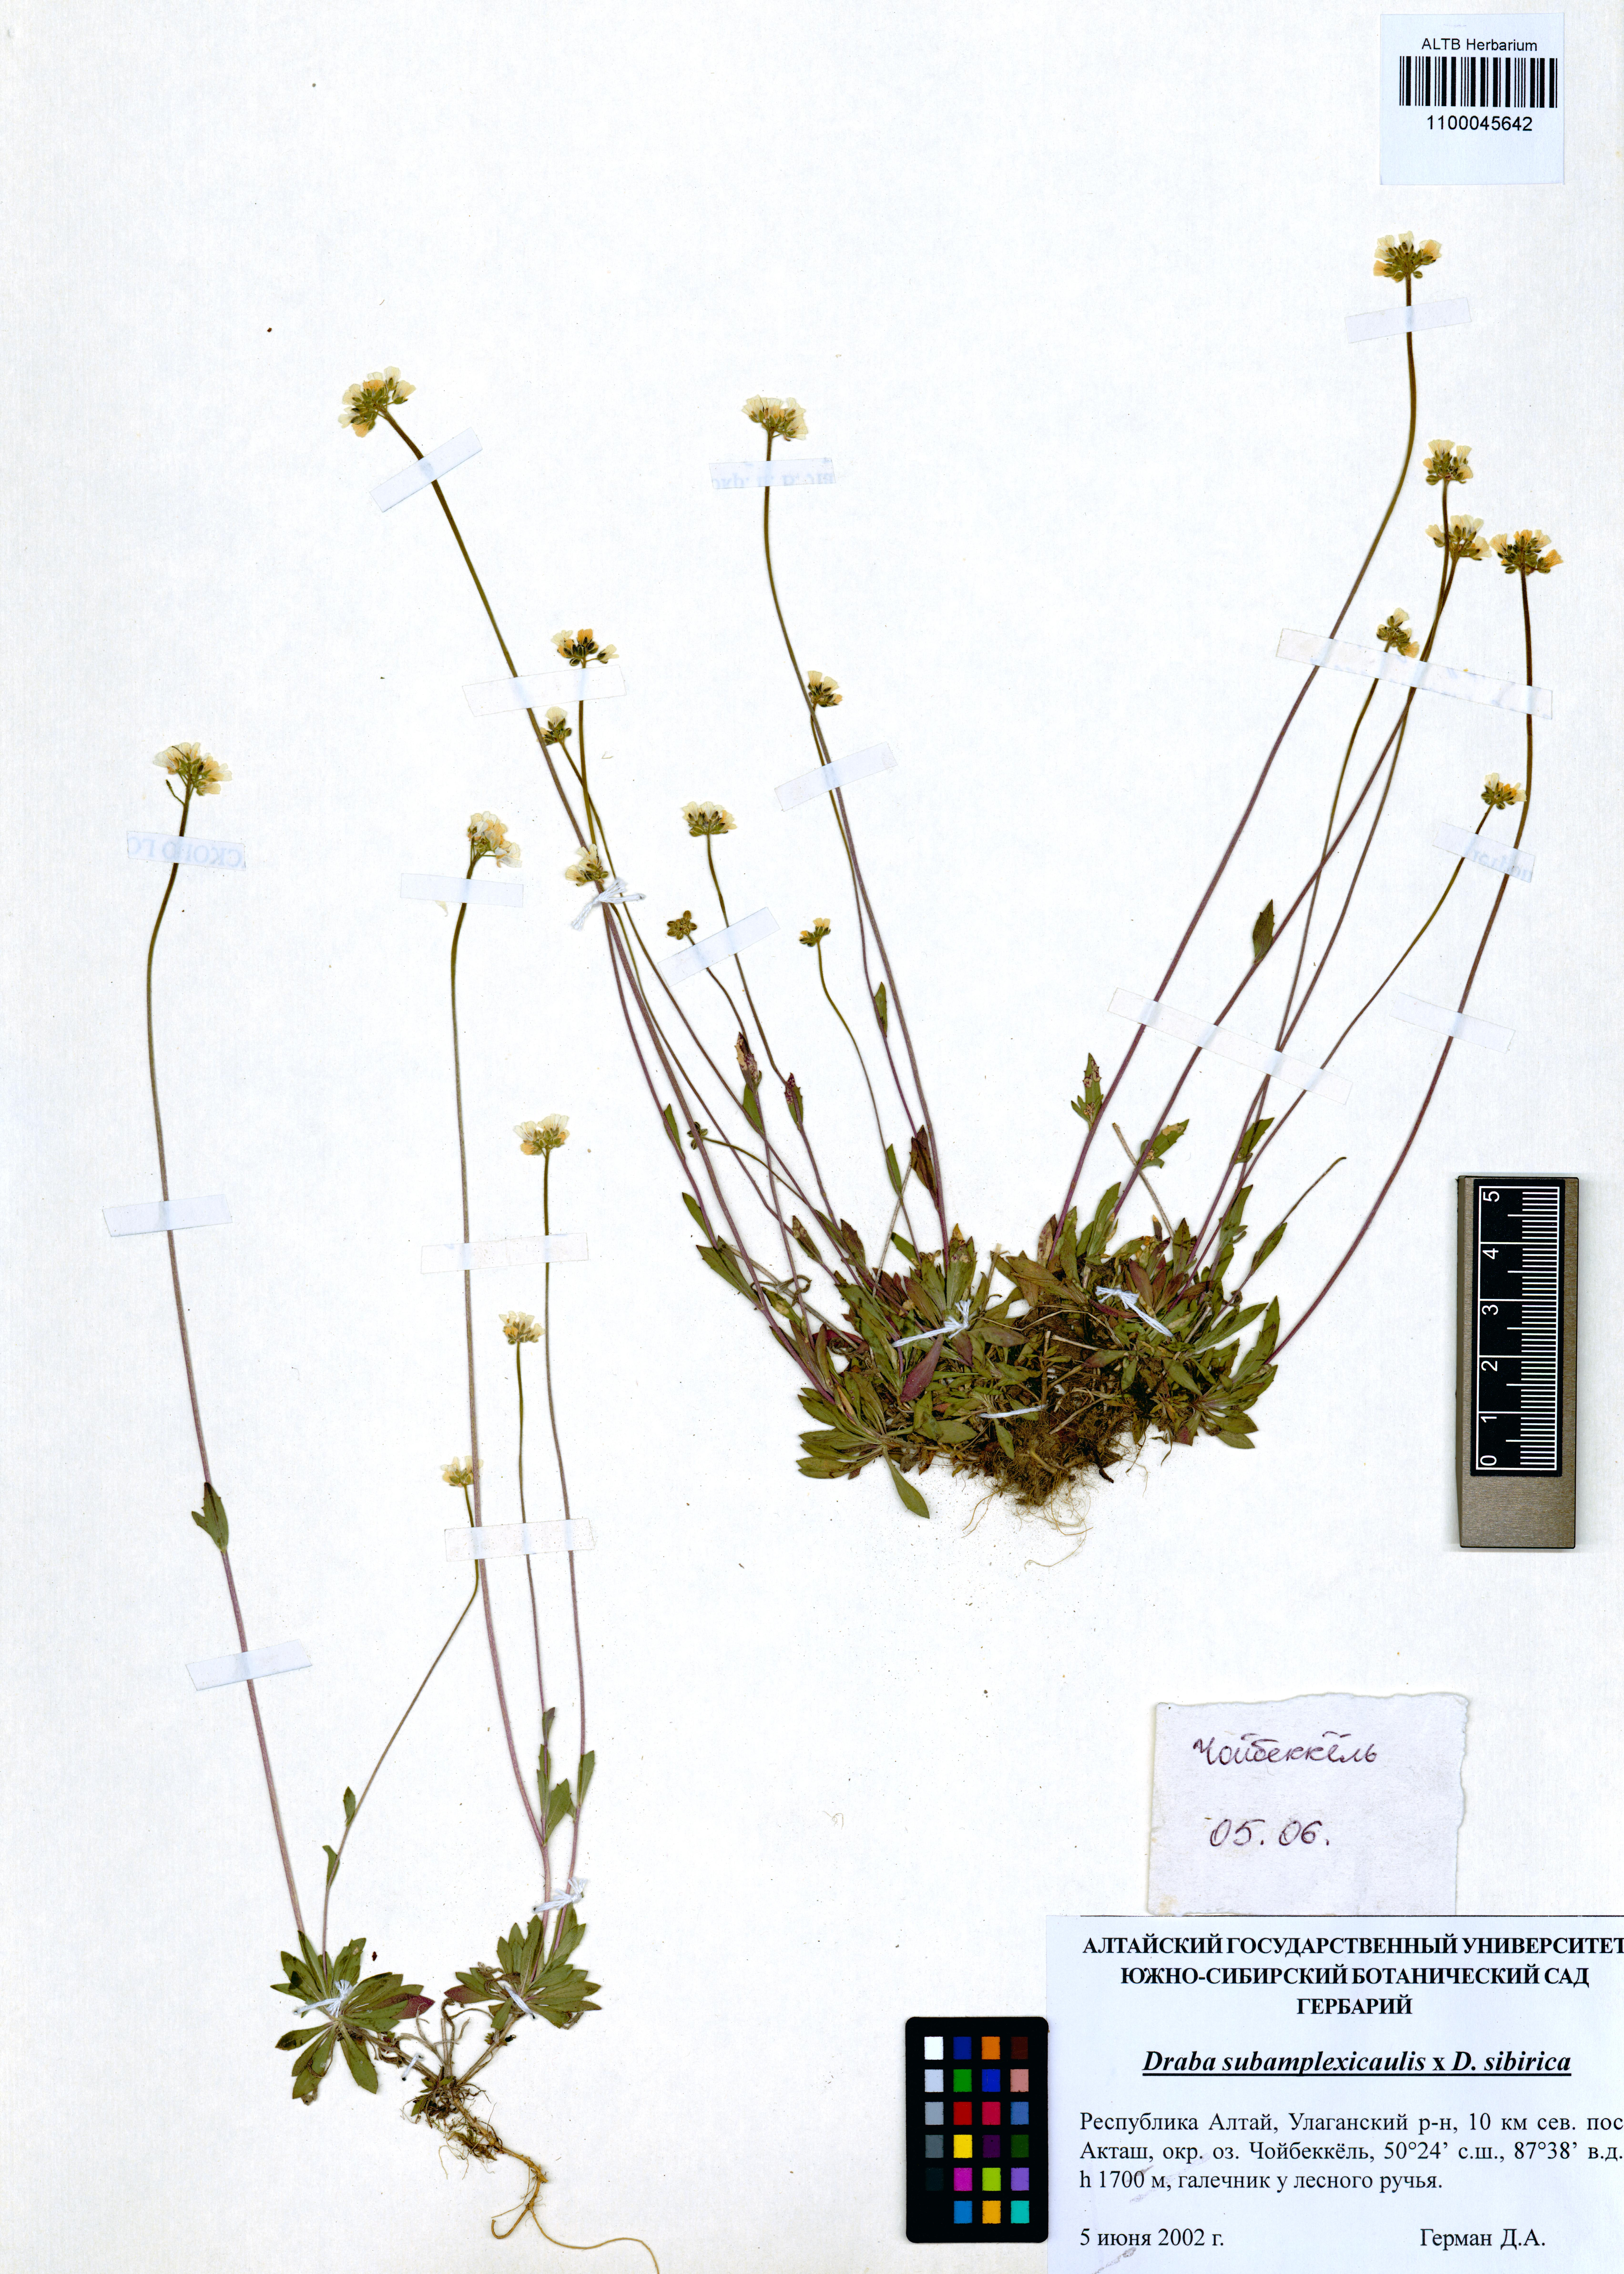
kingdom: Plantae
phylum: Tracheophyta
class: Magnoliopsida
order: Brassicales
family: Brassicaceae
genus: Draba
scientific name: Draba subamplexicaulis
